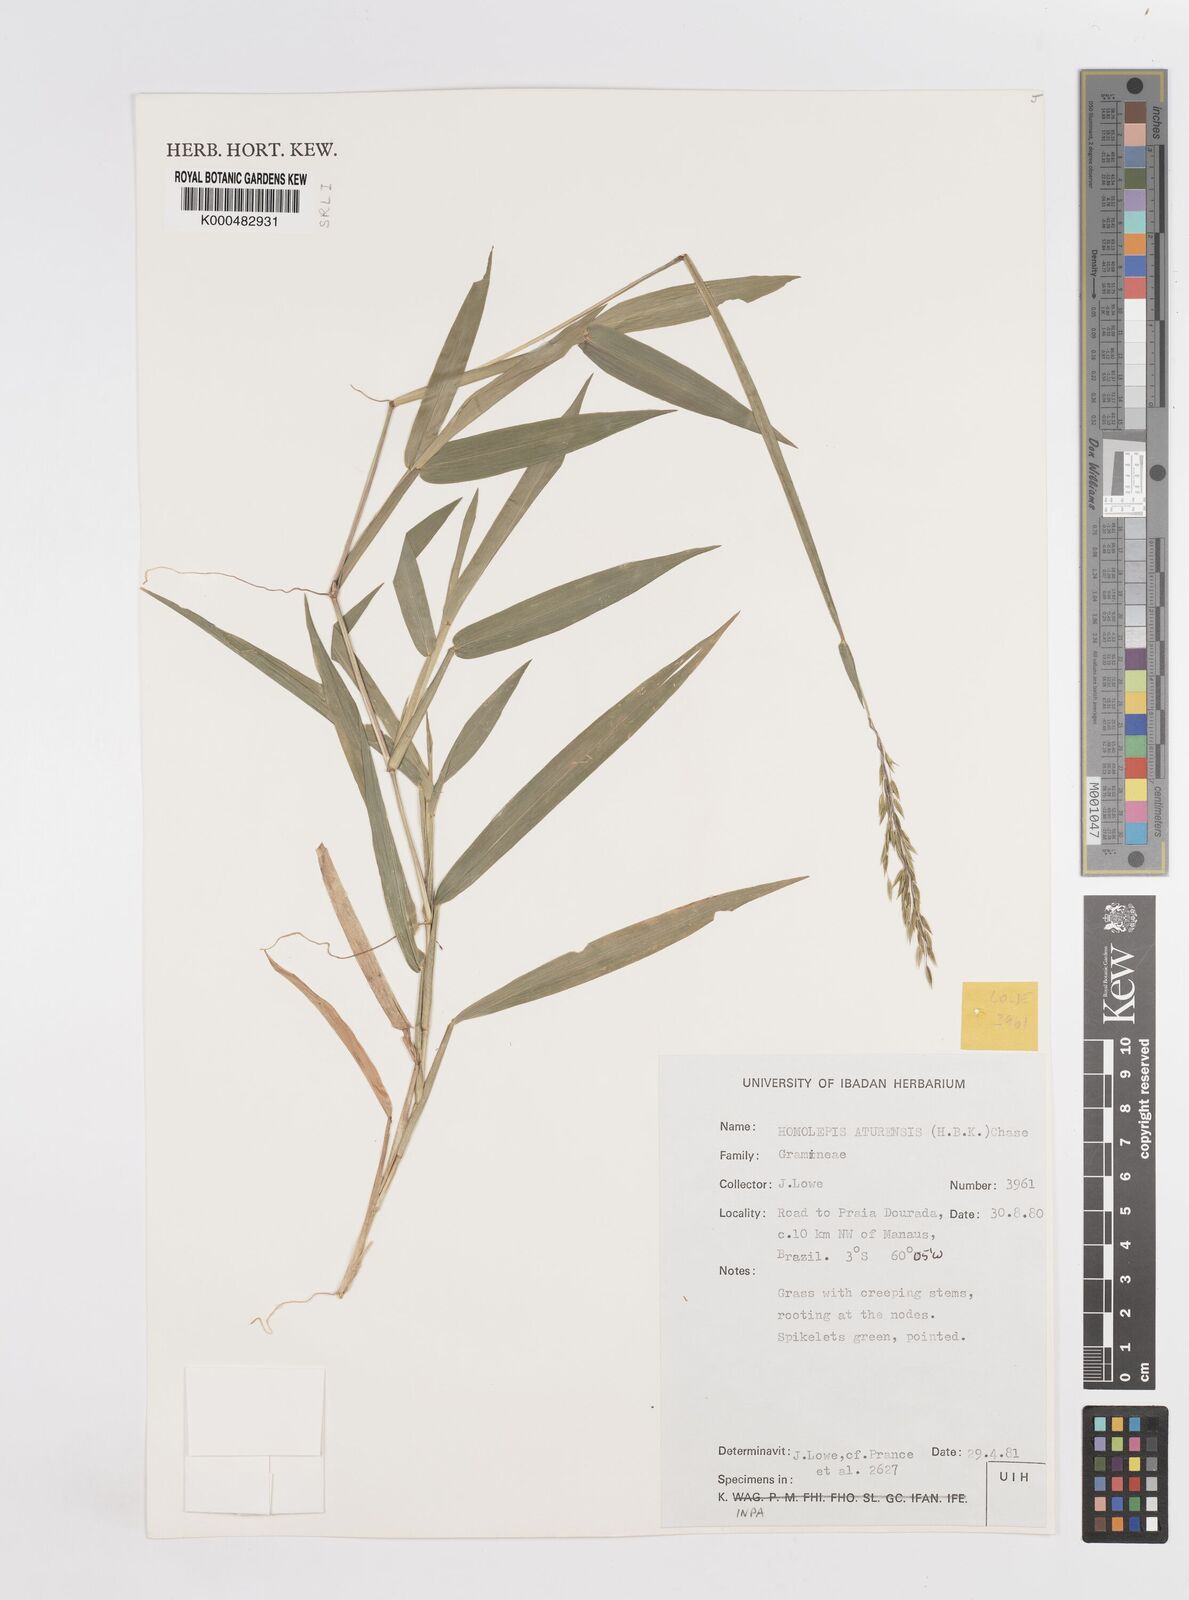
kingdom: Plantae
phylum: Tracheophyta
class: Liliopsida
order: Poales
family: Poaceae
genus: Homolepis
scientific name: Homolepis aturensis
